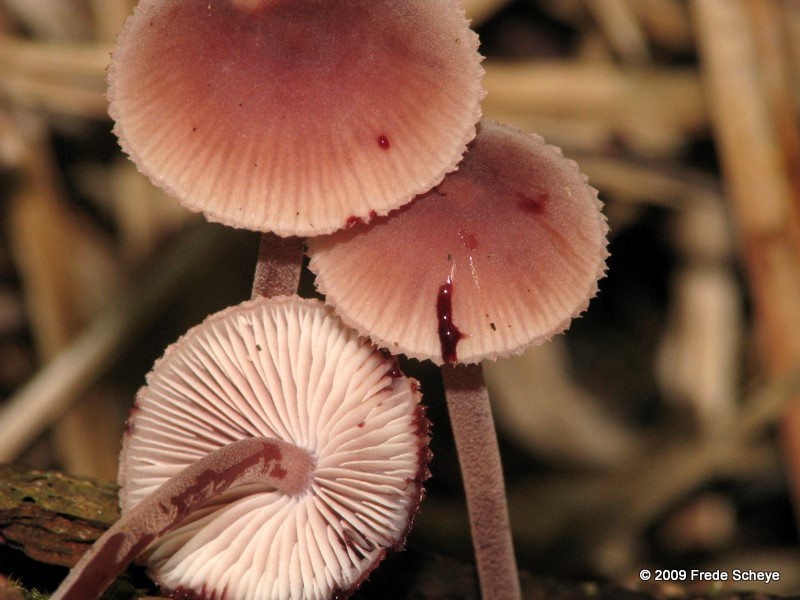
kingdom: Fungi
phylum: Basidiomycota
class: Agaricomycetes
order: Agaricales
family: Mycenaceae
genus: Mycena
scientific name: Mycena haematopus
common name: blødende huesvamp
